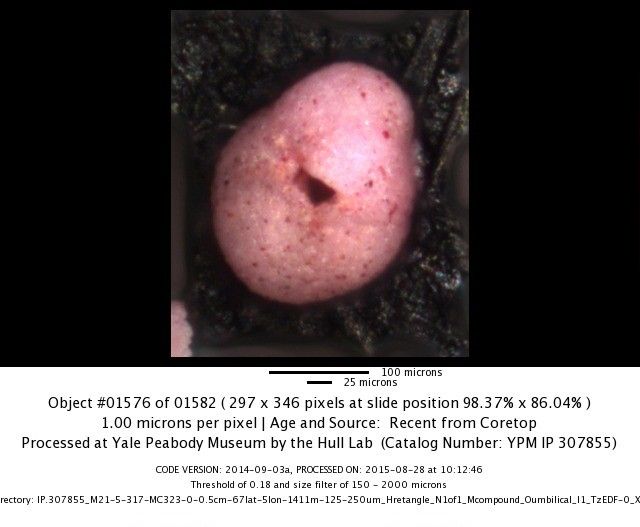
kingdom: Chromista
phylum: Foraminifera
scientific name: Foraminifera
